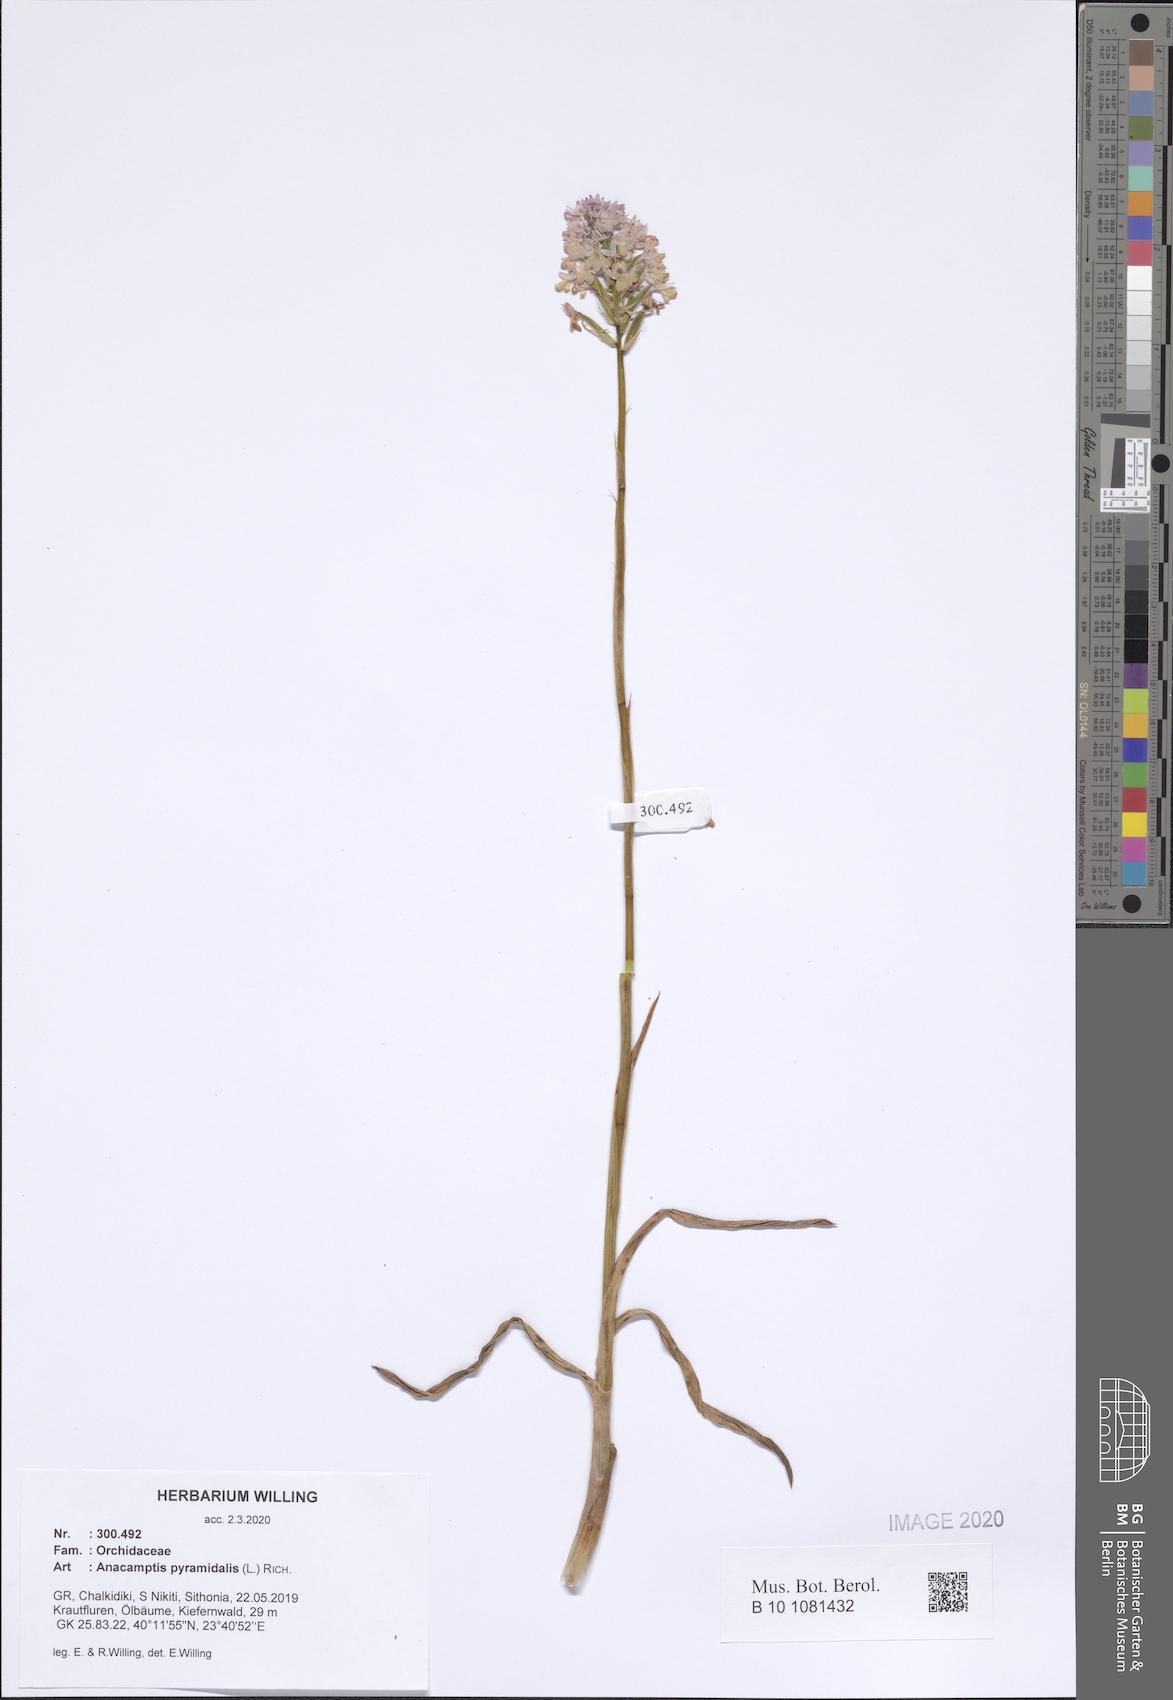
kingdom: Plantae
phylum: Tracheophyta
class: Liliopsida
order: Asparagales
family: Orchidaceae
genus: Anacamptis
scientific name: Anacamptis pyramidalis
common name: Pyramidal orchid
